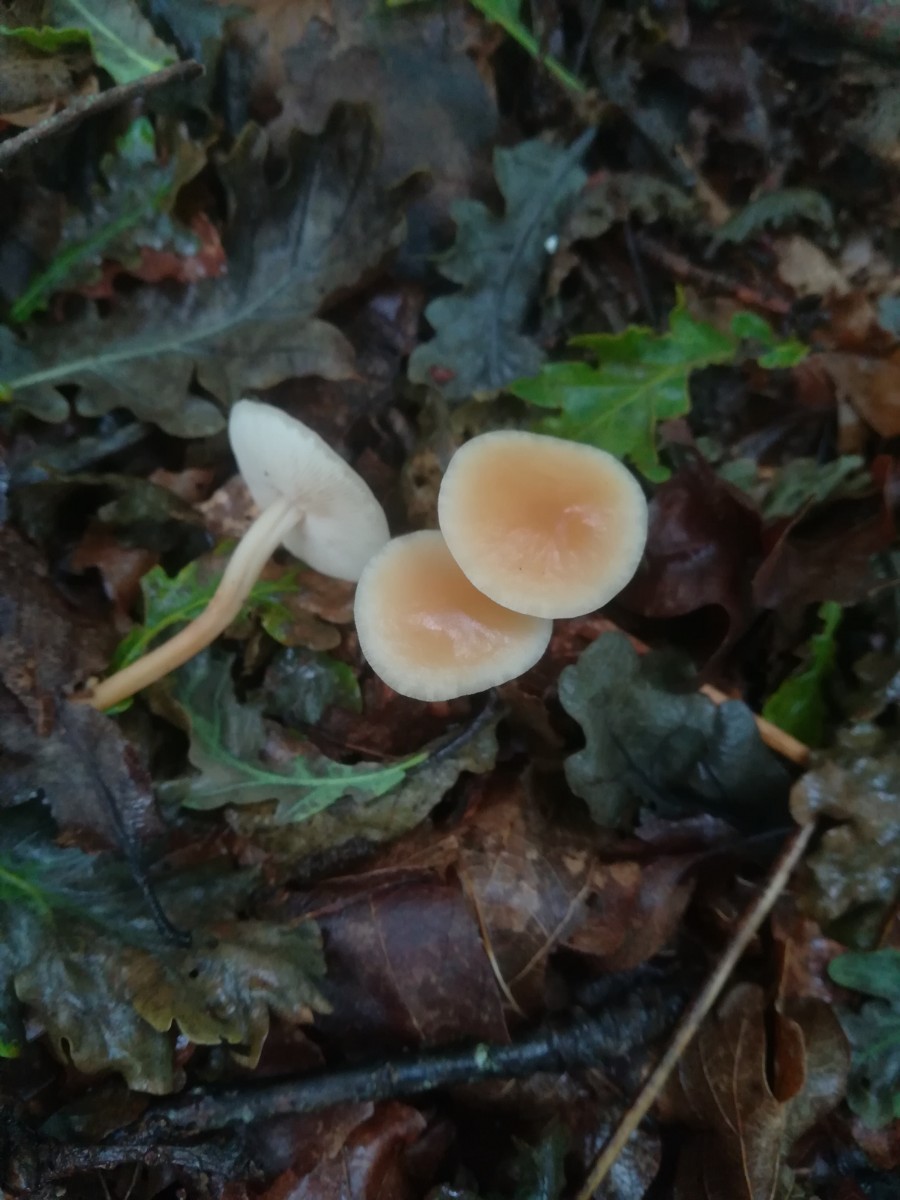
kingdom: Fungi
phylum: Basidiomycota
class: Agaricomycetes
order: Agaricales
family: Omphalotaceae
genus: Gymnopus
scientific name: Gymnopus dryophilus
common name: løv-fladhat
